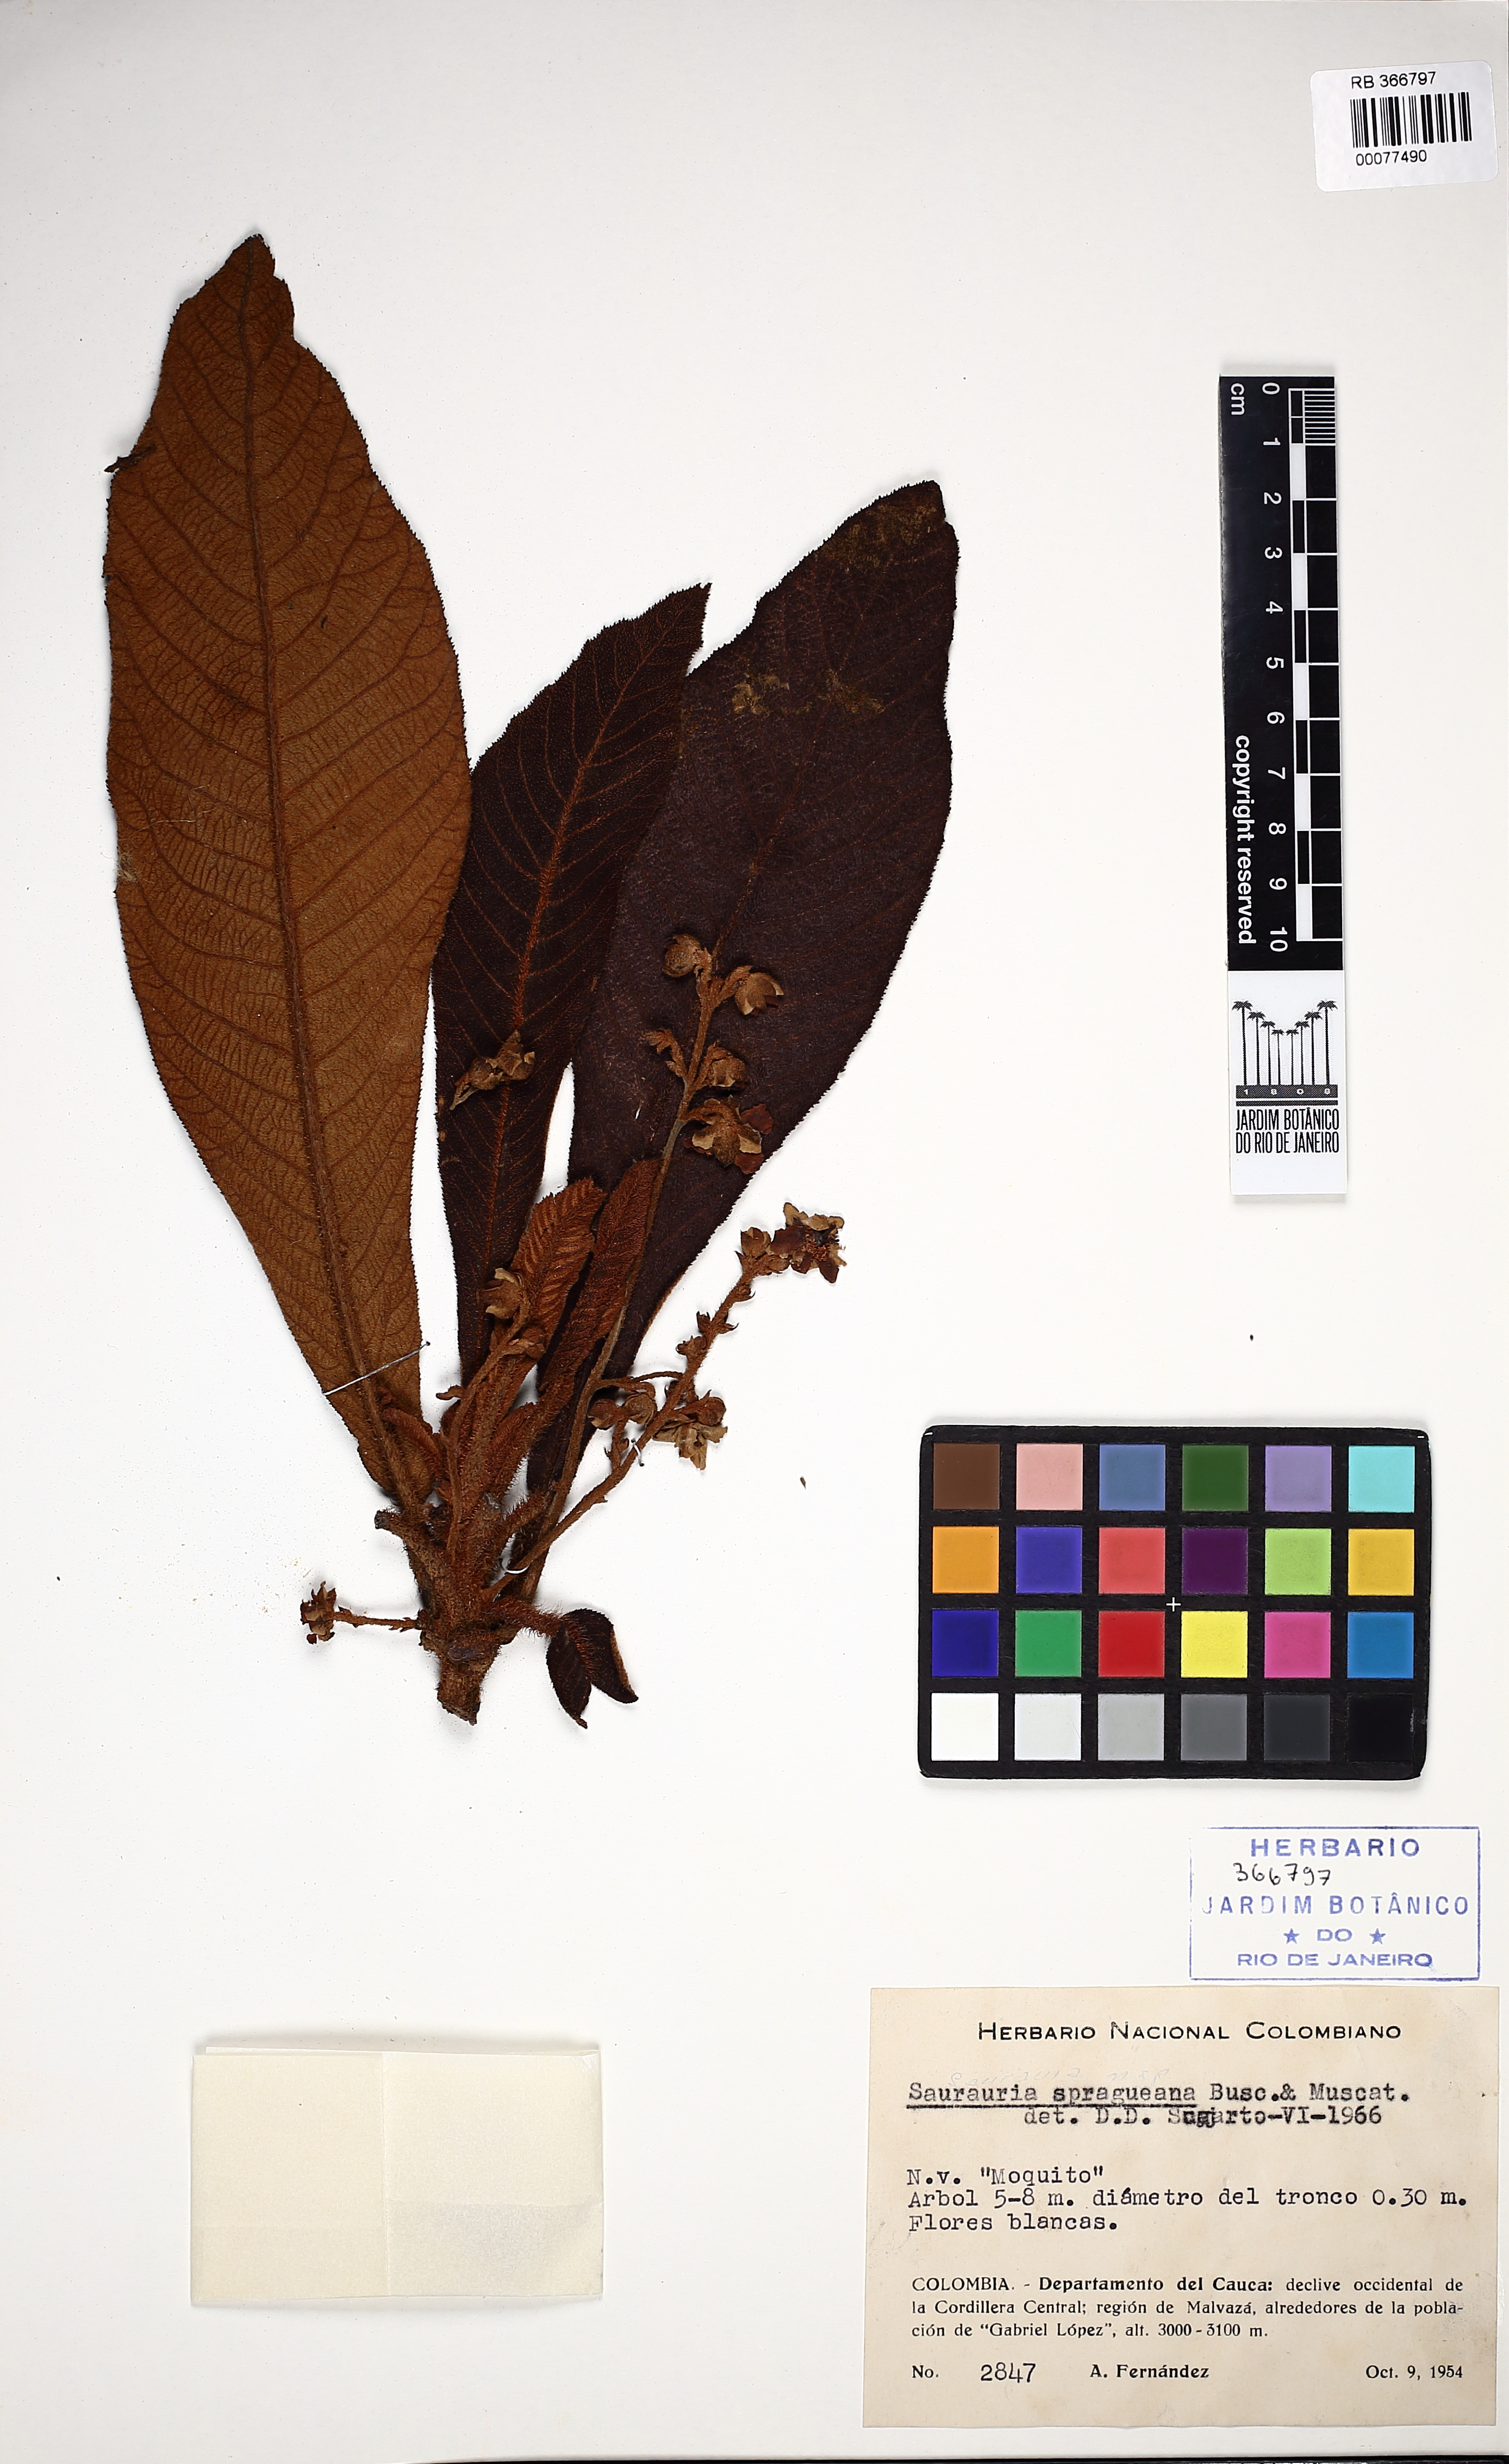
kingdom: Plantae
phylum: Tracheophyta
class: Magnoliopsida
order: Ericales
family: Actinidiaceae
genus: Saurauia
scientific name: Saurauia bullosa
